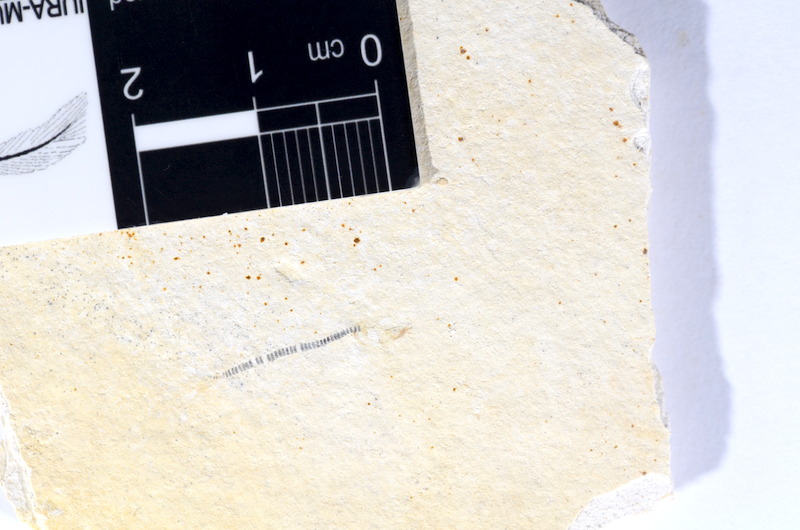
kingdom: Animalia
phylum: Chordata
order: Salmoniformes
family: Orthogonikleithridae
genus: Orthogonikleithrus
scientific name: Orthogonikleithrus hoelli
